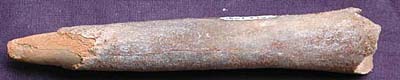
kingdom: Animalia
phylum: Mollusca
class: Cephalopoda
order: Belemnitida
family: Megateuthididae
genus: Dactyloteuthis
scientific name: Dactyloteuthis
